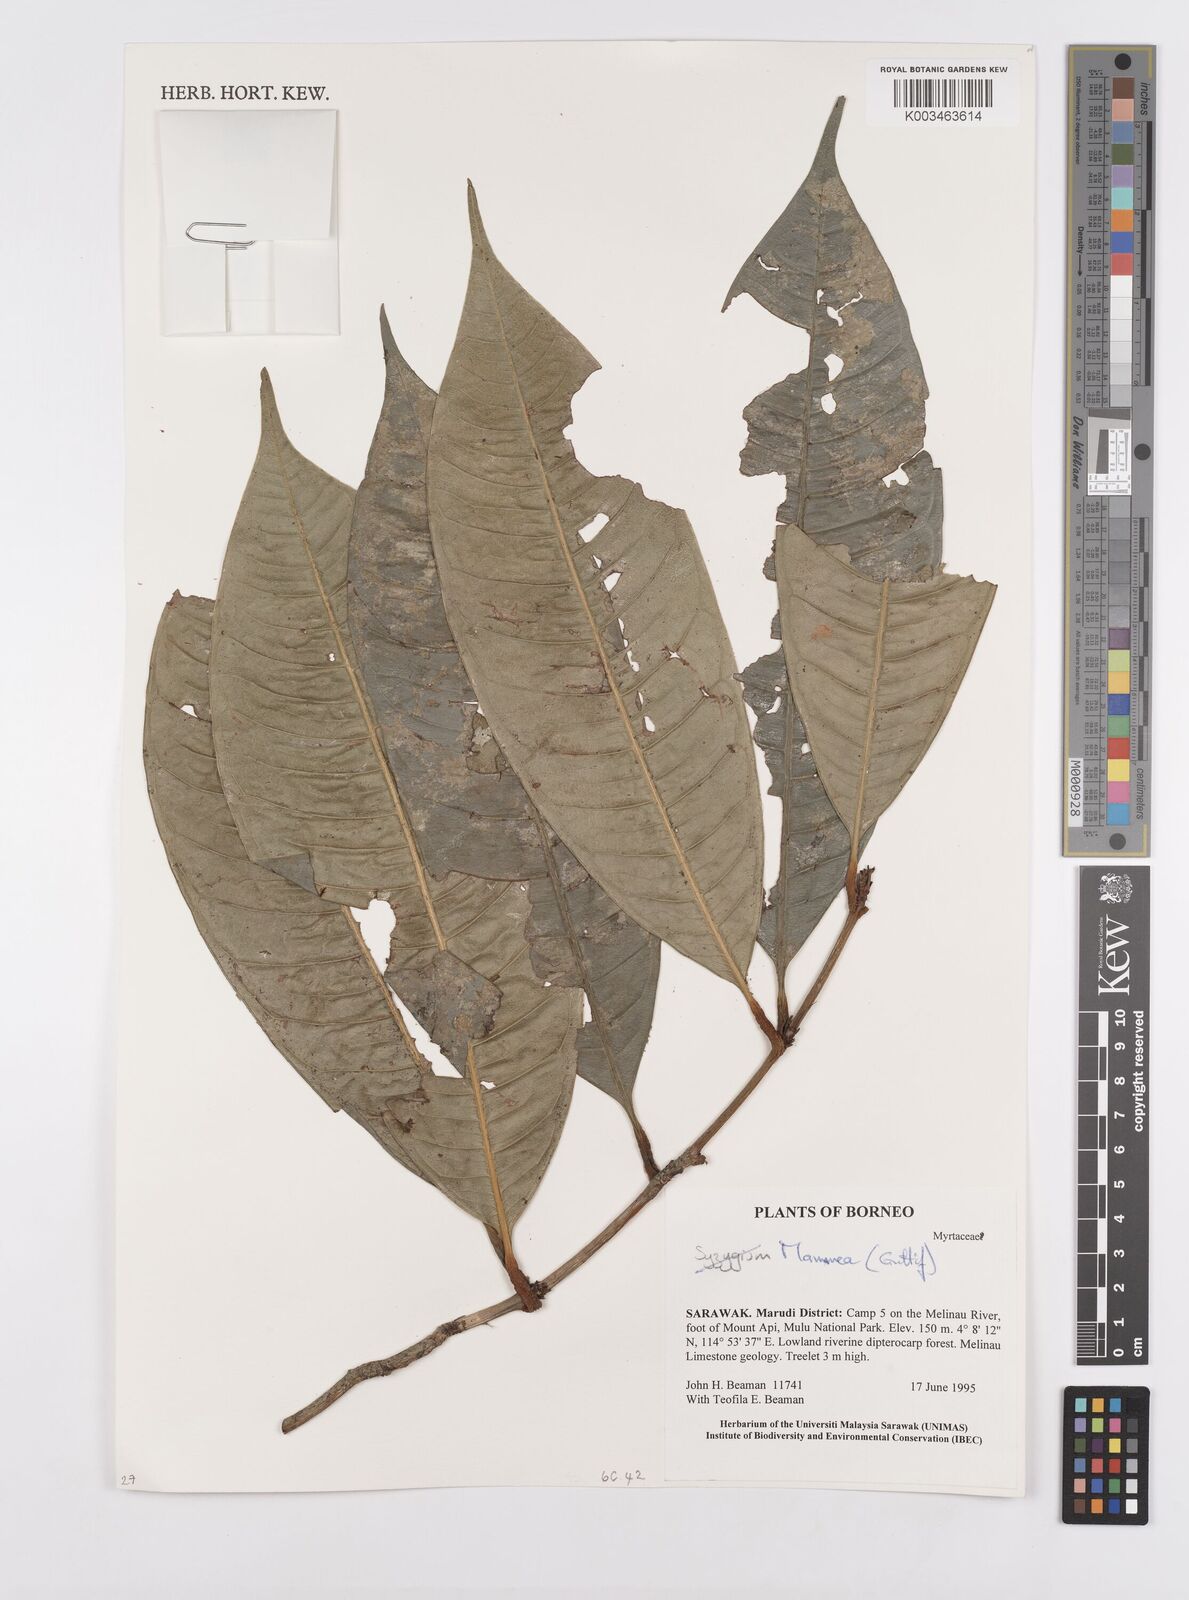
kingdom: Plantae
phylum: Tracheophyta
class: Magnoliopsida
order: Malpighiales
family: Calophyllaceae
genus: Mammea
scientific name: Mammea
